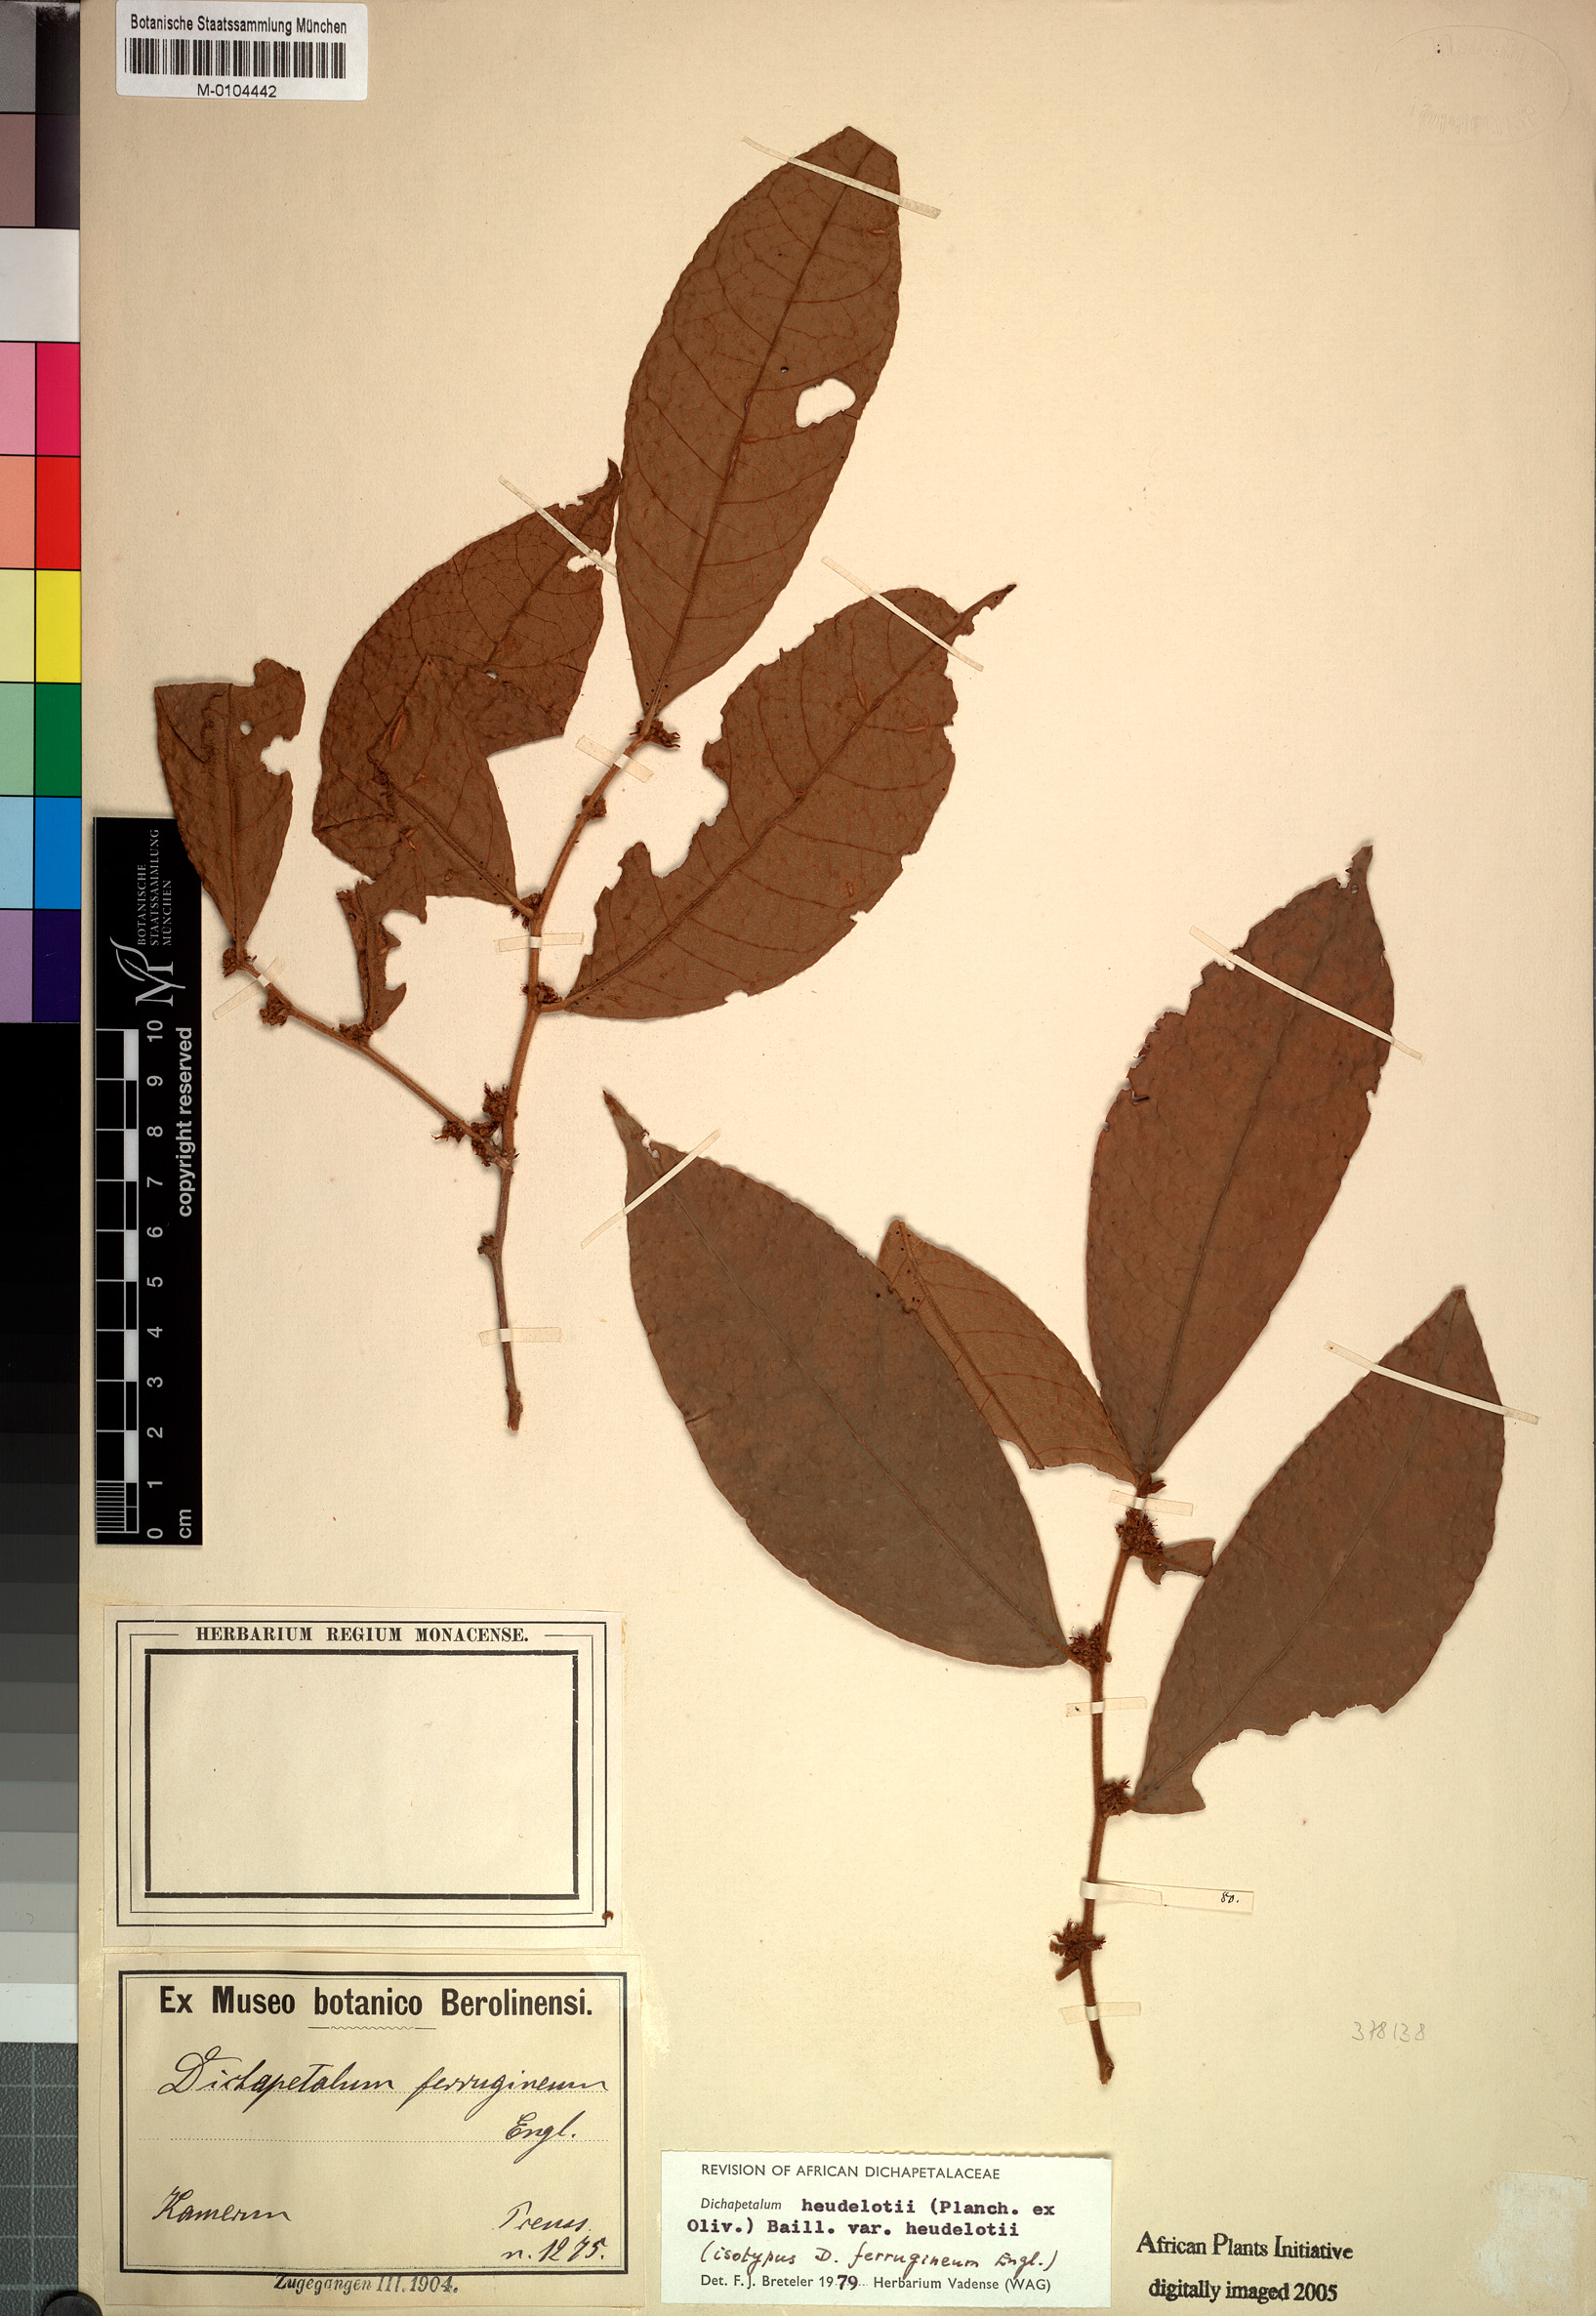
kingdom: Plantae
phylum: Tracheophyta
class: Magnoliopsida
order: Malpighiales
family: Dichapetalaceae
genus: Dichapetalum
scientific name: Dichapetalum heudelotii
